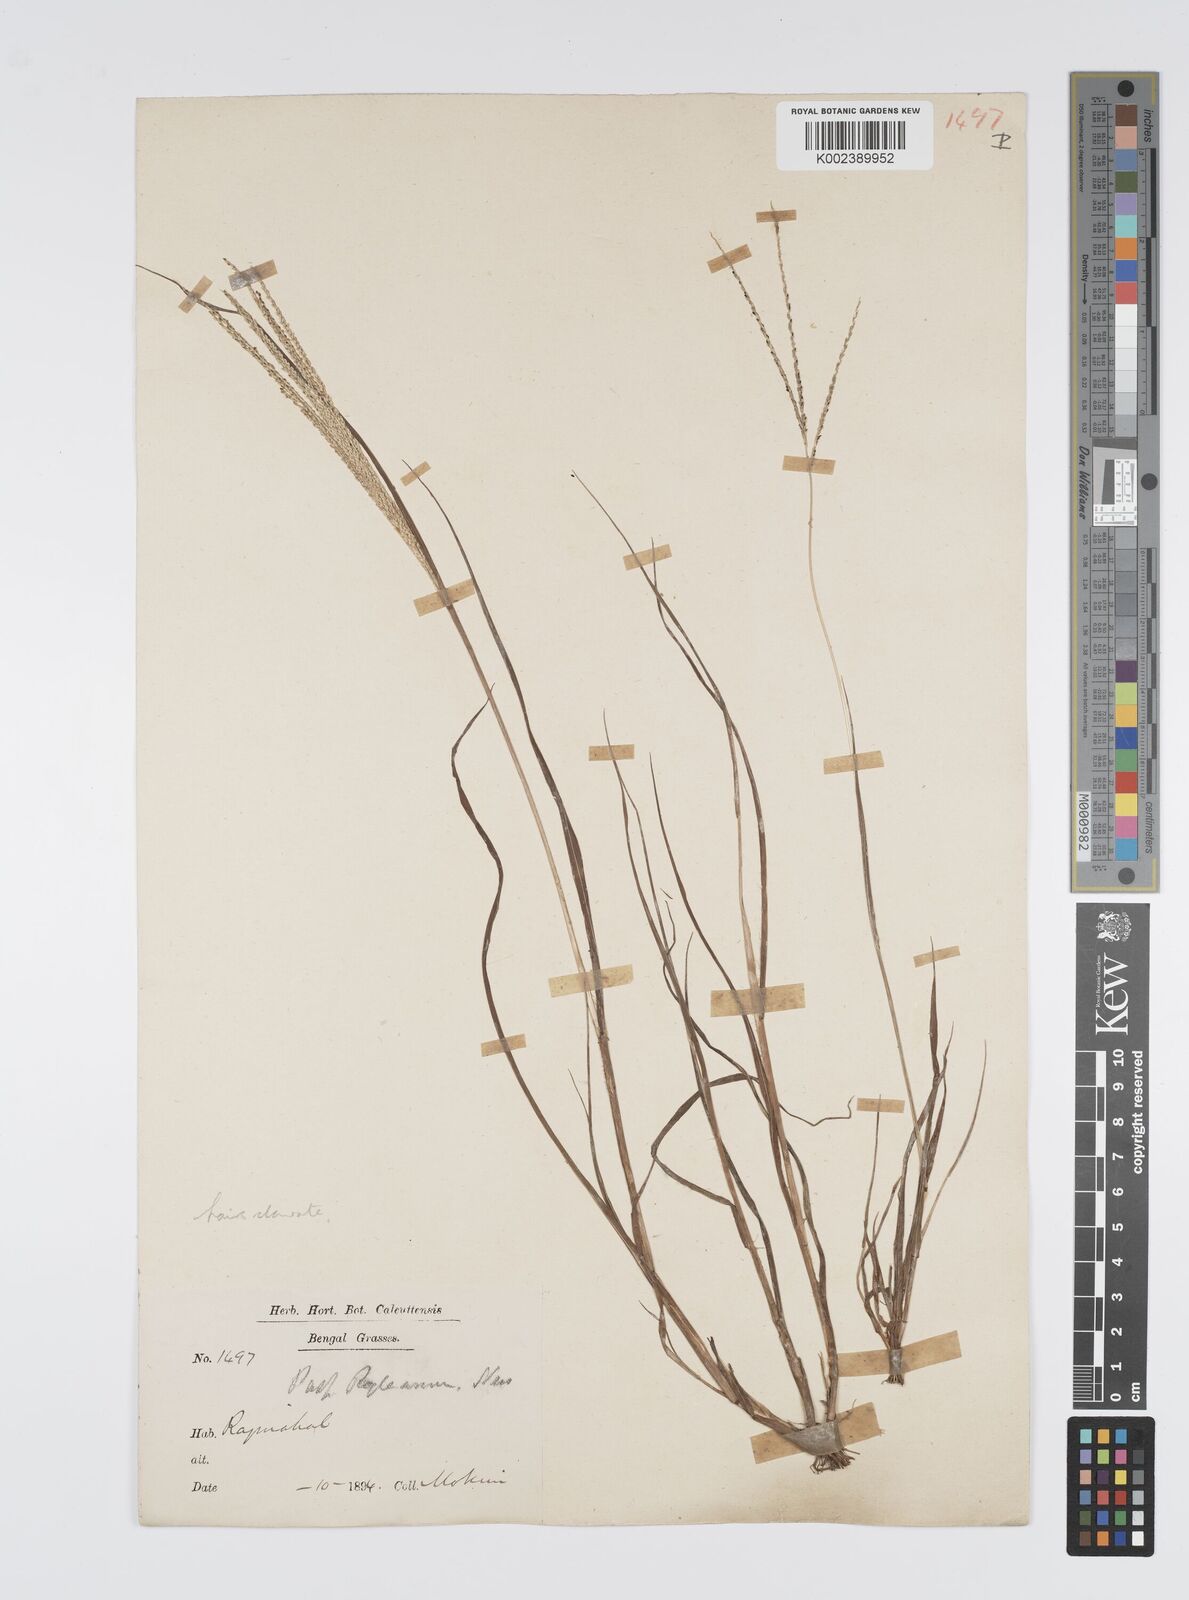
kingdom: Plantae
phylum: Tracheophyta
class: Liliopsida
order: Poales
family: Poaceae
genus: Digitaria
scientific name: Digitaria stricta
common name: Crabgrass
